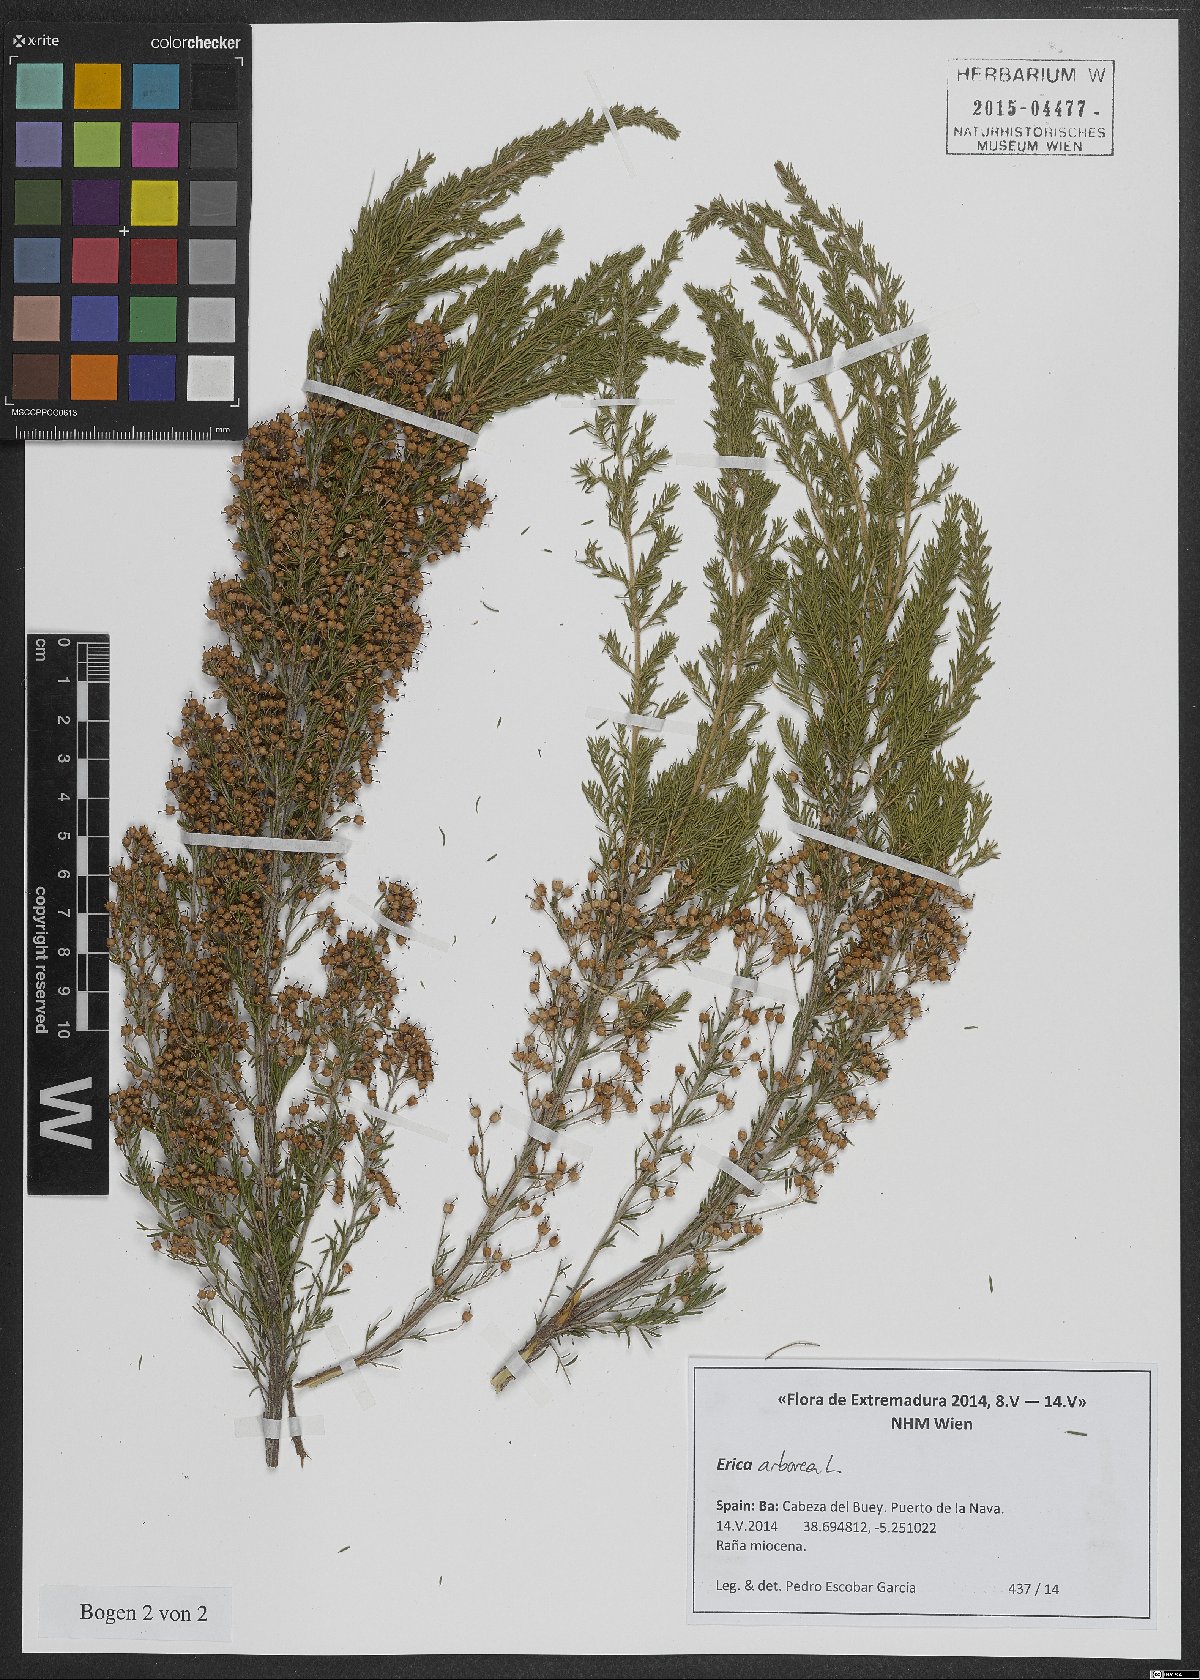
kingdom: Plantae
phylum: Tracheophyta
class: Magnoliopsida
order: Ericales
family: Ericaceae
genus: Erica
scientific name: Erica arborea
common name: Tree heath
